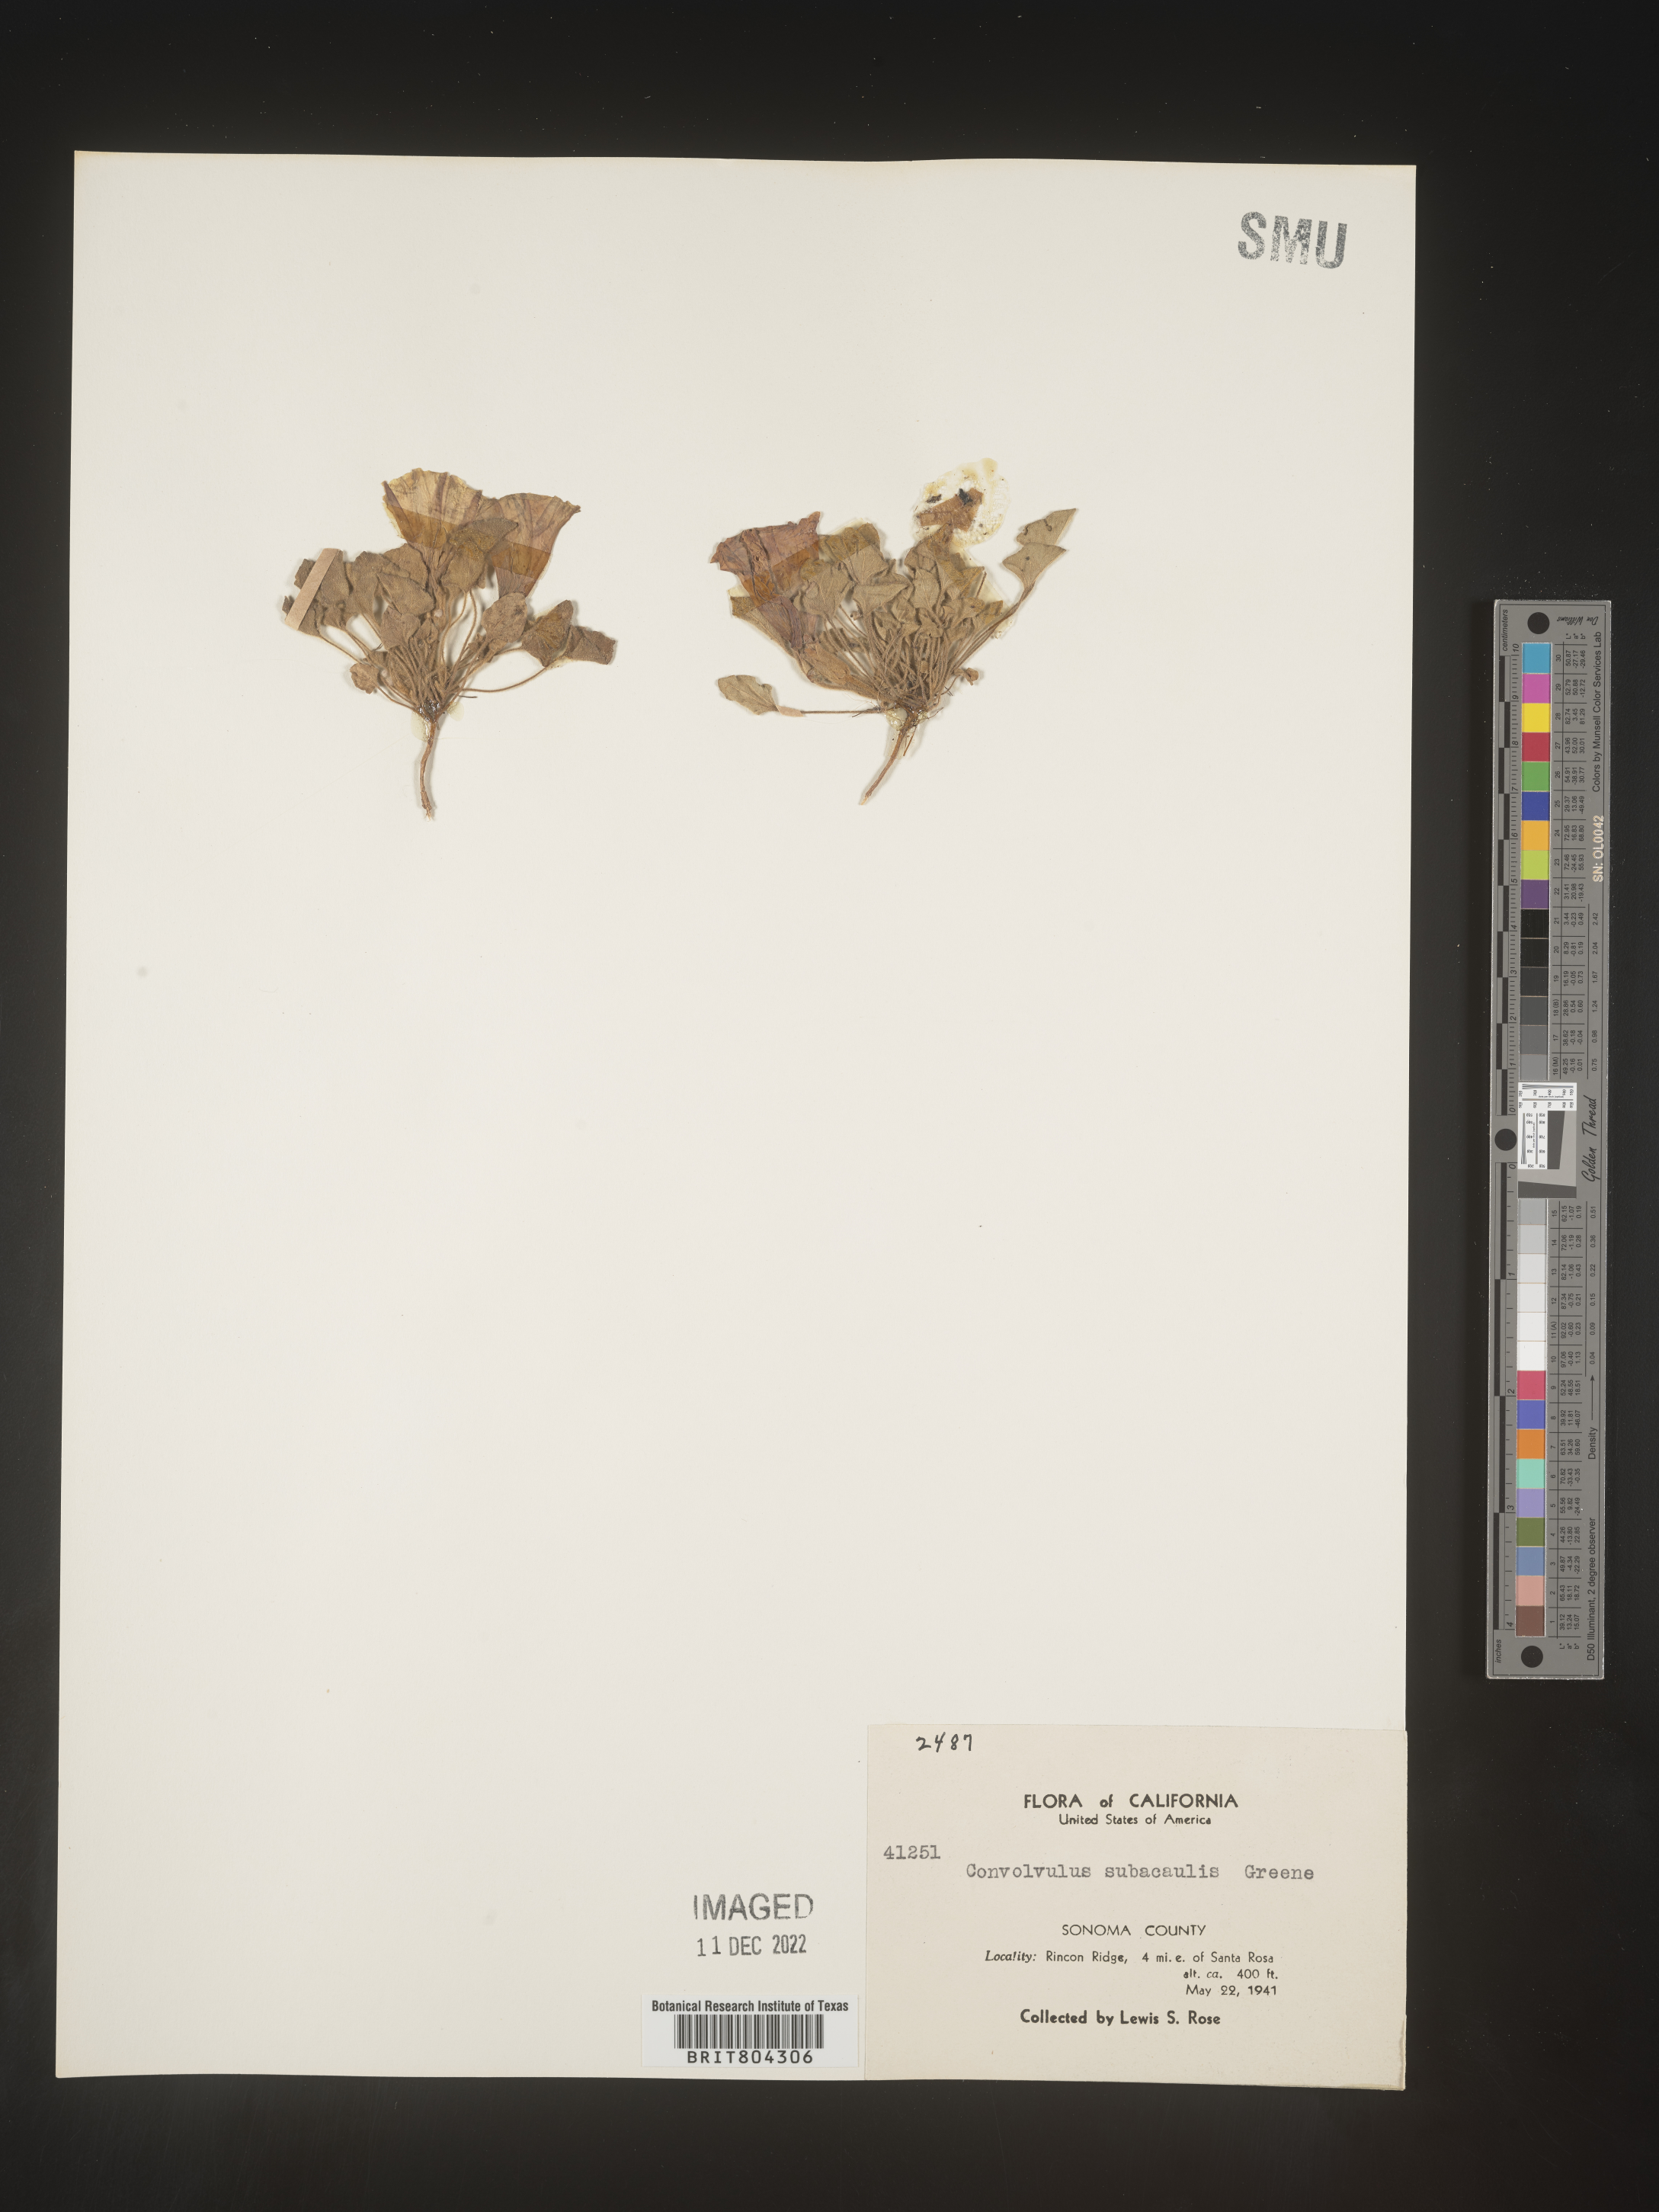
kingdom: Plantae
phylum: Tracheophyta
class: Magnoliopsida
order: Solanales
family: Convolvulaceae
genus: Calystegia
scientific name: Calystegia
